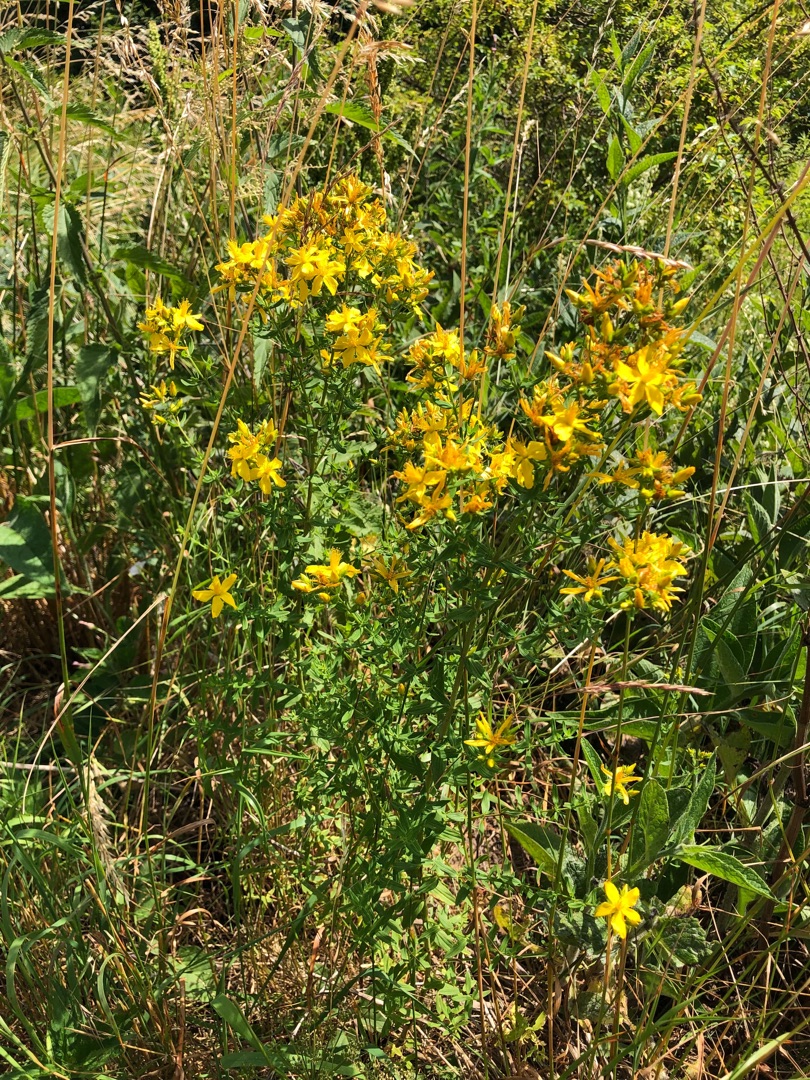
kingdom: Plantae
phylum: Tracheophyta
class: Magnoliopsida
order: Malpighiales
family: Hypericaceae
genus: Hypericum
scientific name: Hypericum perforatum
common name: Prikbladet perikon
